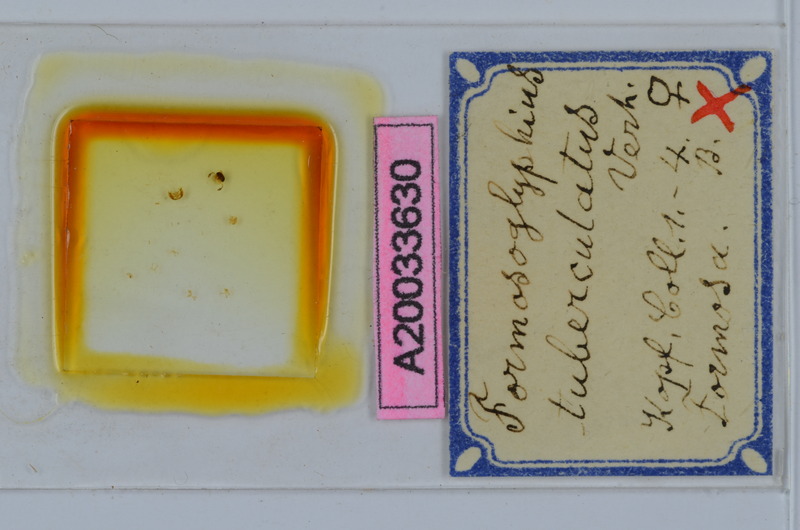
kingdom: Animalia
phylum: Arthropoda
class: Diplopoda
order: Spirostreptida
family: Cambalopsidae
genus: Glyphiulus
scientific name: Glyphiulus granulatus
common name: Millipede
